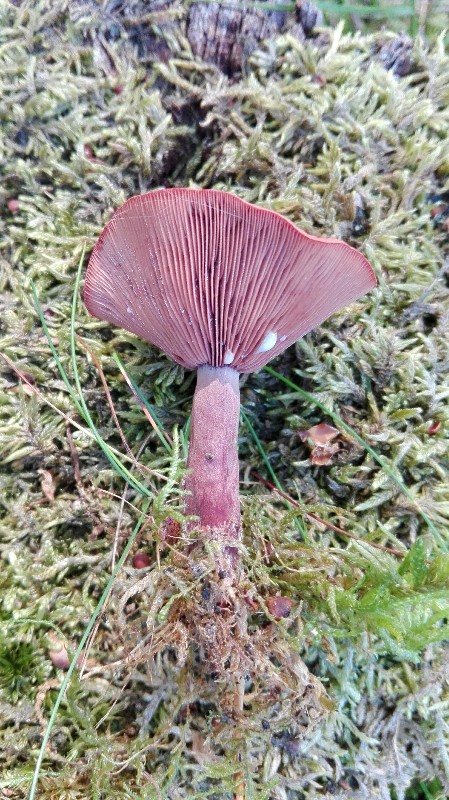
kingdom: Fungi
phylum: Basidiomycota
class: Agaricomycetes
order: Russulales
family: Russulaceae
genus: Lactarius
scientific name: Lactarius camphoratus
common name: kamfer-mælkehat
